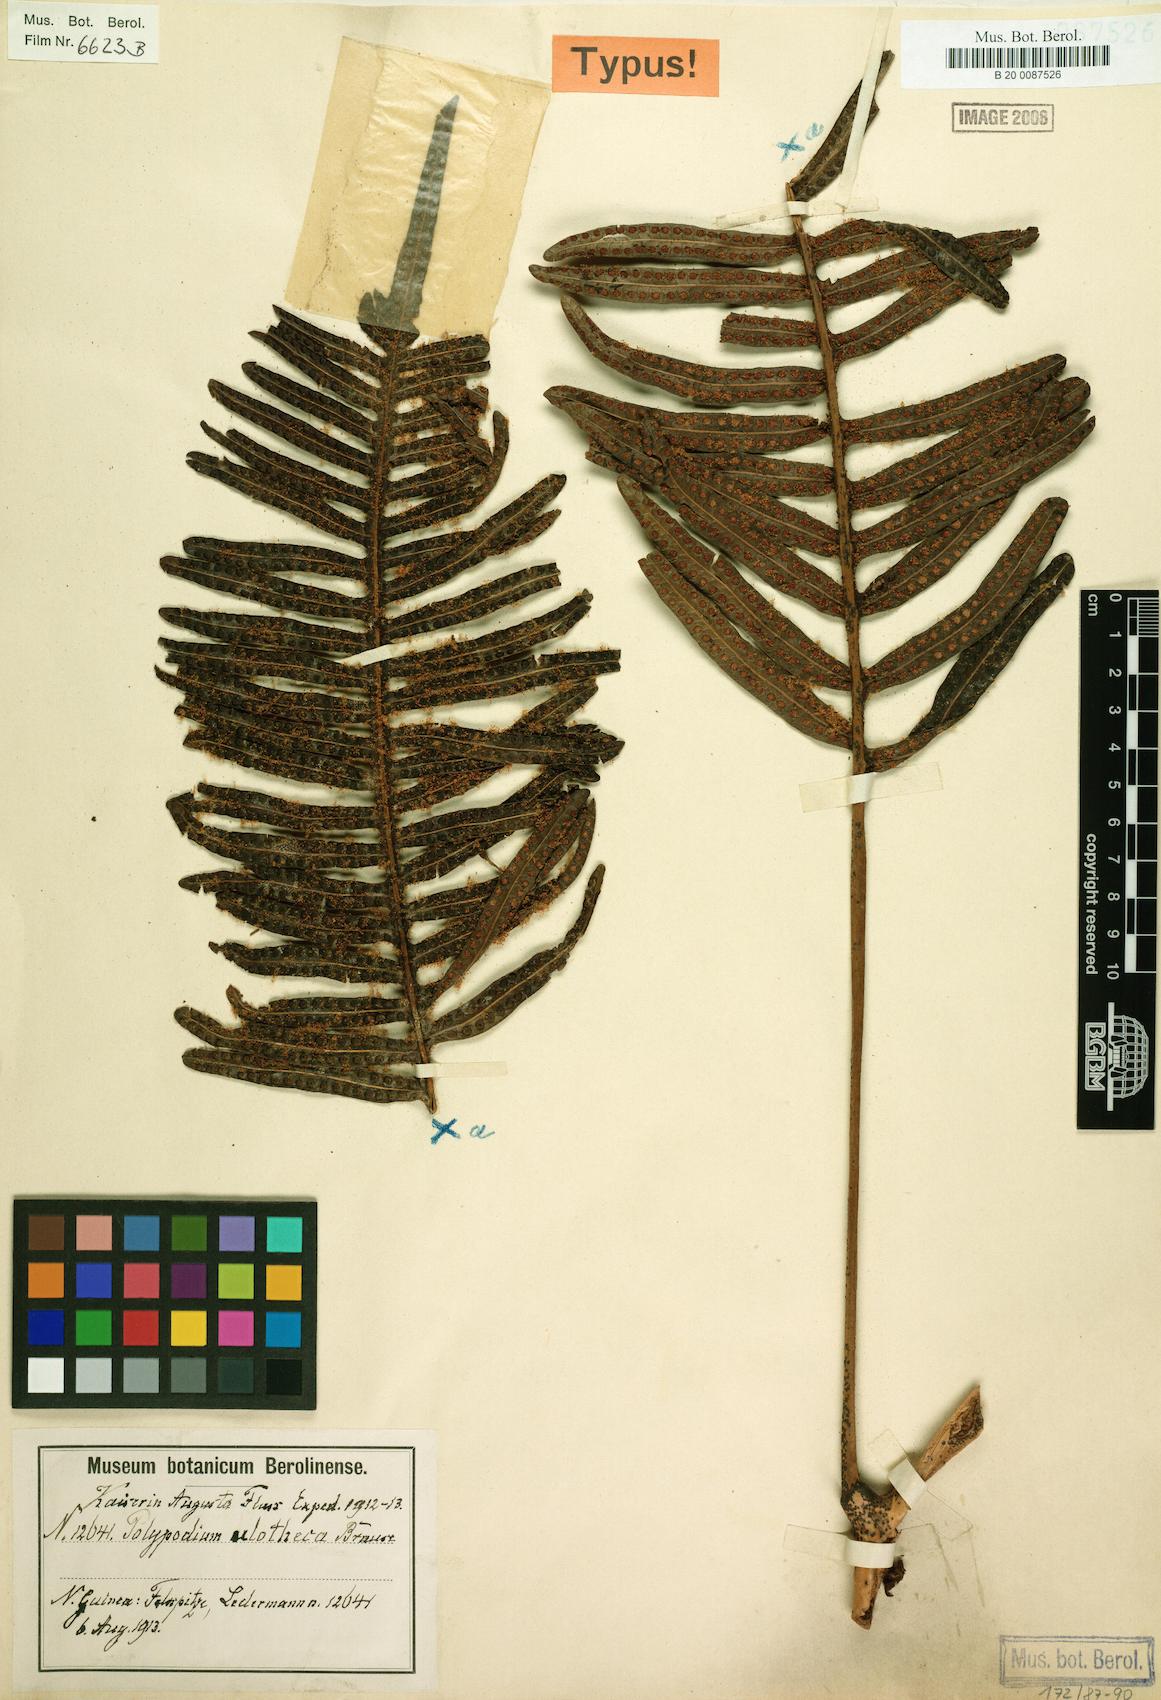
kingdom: Plantae
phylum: Tracheophyta
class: Polypodiopsida
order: Polypodiales
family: Polypodiaceae
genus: Lecanopteris
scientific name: Lecanopteris mirabilis
